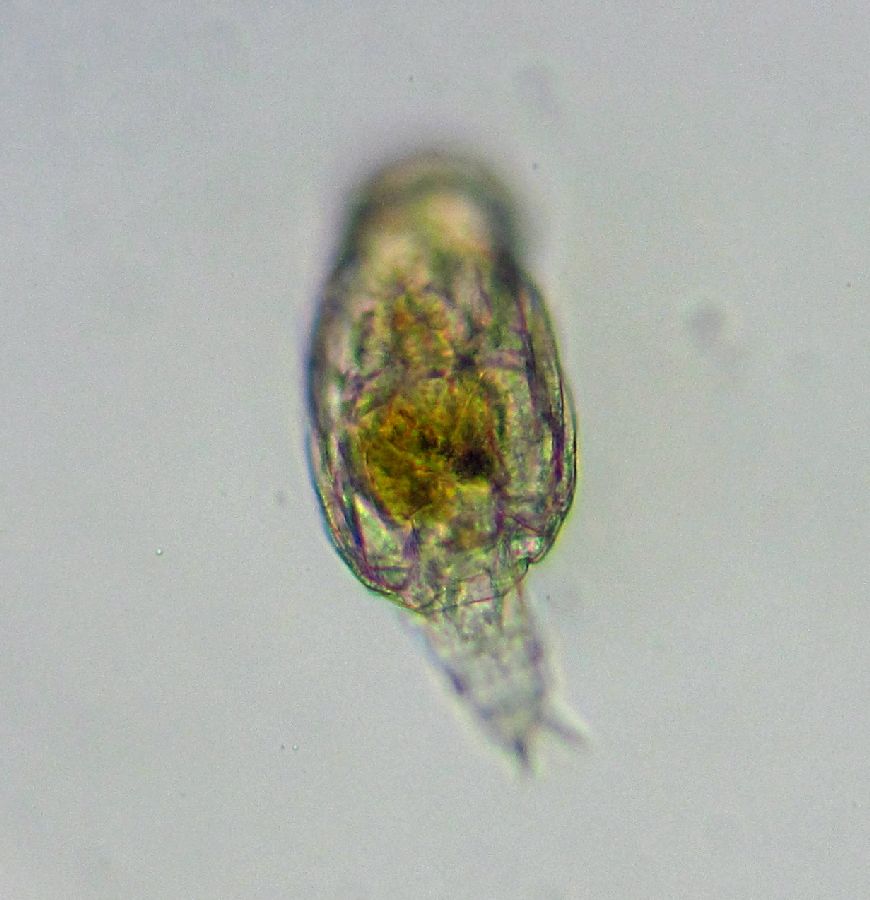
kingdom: Animalia
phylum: Rotifera
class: Eurotatoria
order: Bdelloidea
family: Philodinidae
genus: Rotaria
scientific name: Rotaria citrina
